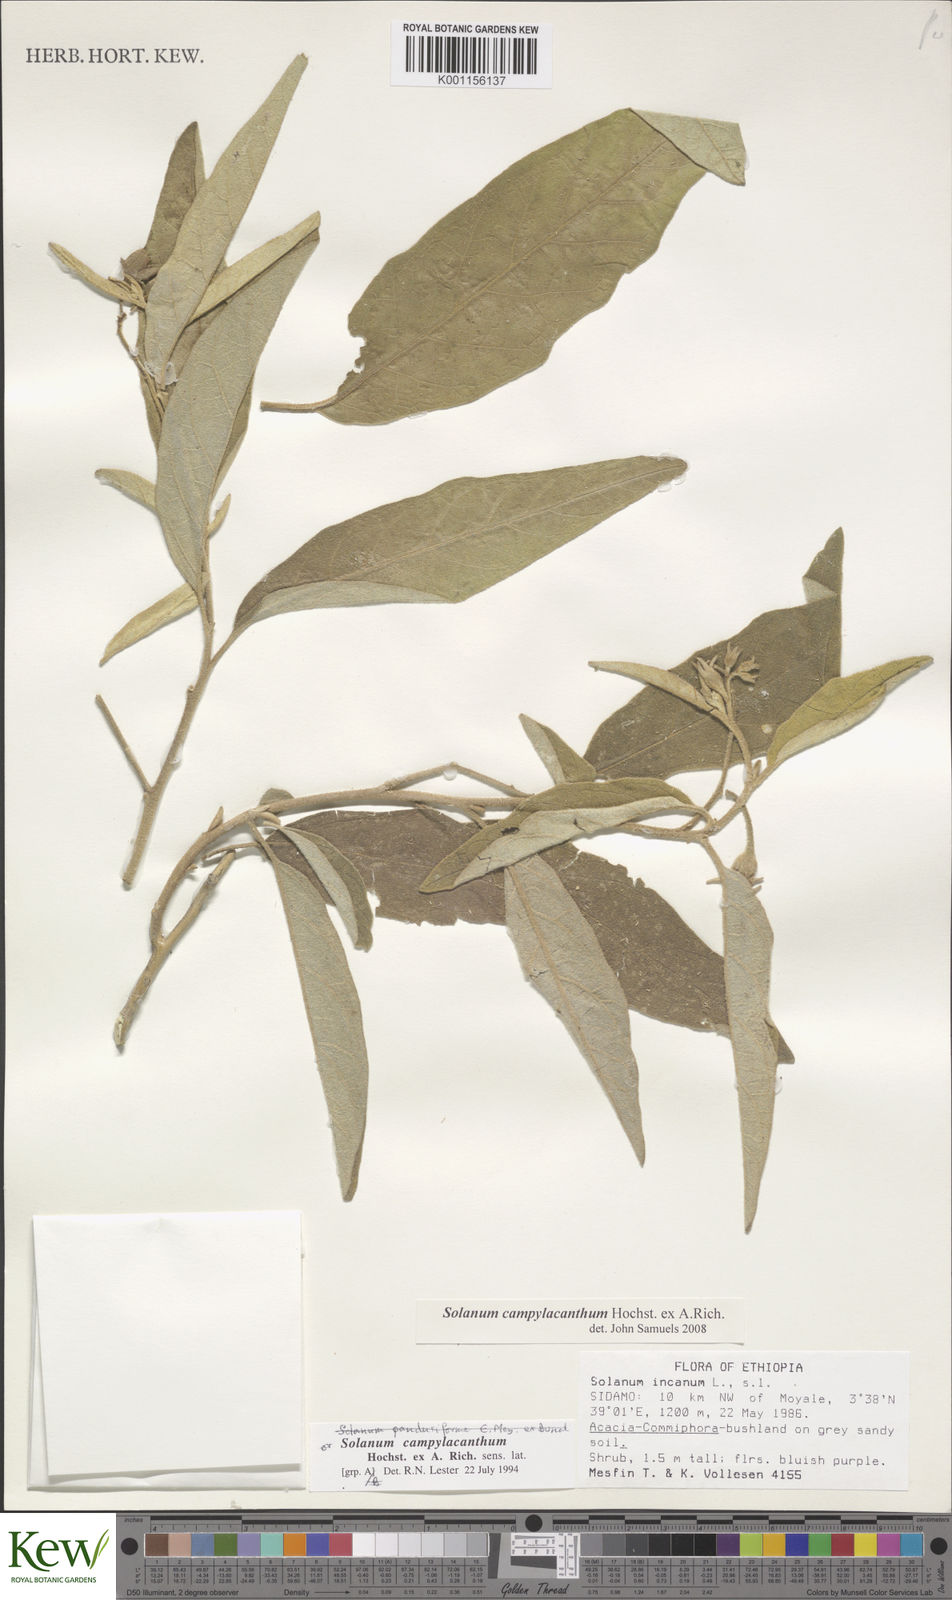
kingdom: Plantae
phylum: Tracheophyta
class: Magnoliopsida
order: Solanales
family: Solanaceae
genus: Solanum
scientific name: Solanum campylacanthum
